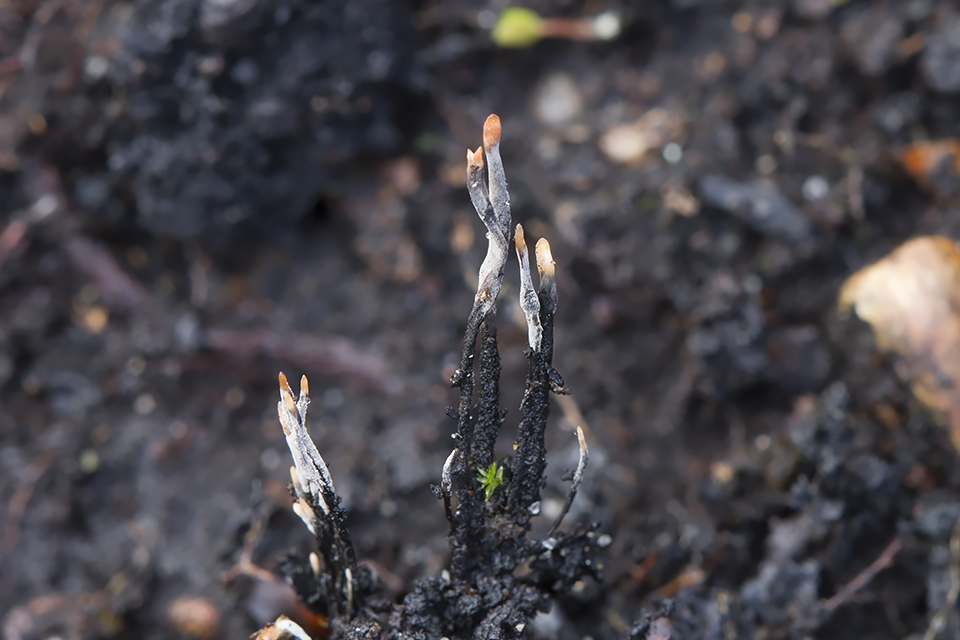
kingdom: Fungi
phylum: Ascomycota
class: Sordariomycetes
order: Xylariales
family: Xylariaceae
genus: Xylaria
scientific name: Xylaria carpophila
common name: bogskål-stødsvamp
